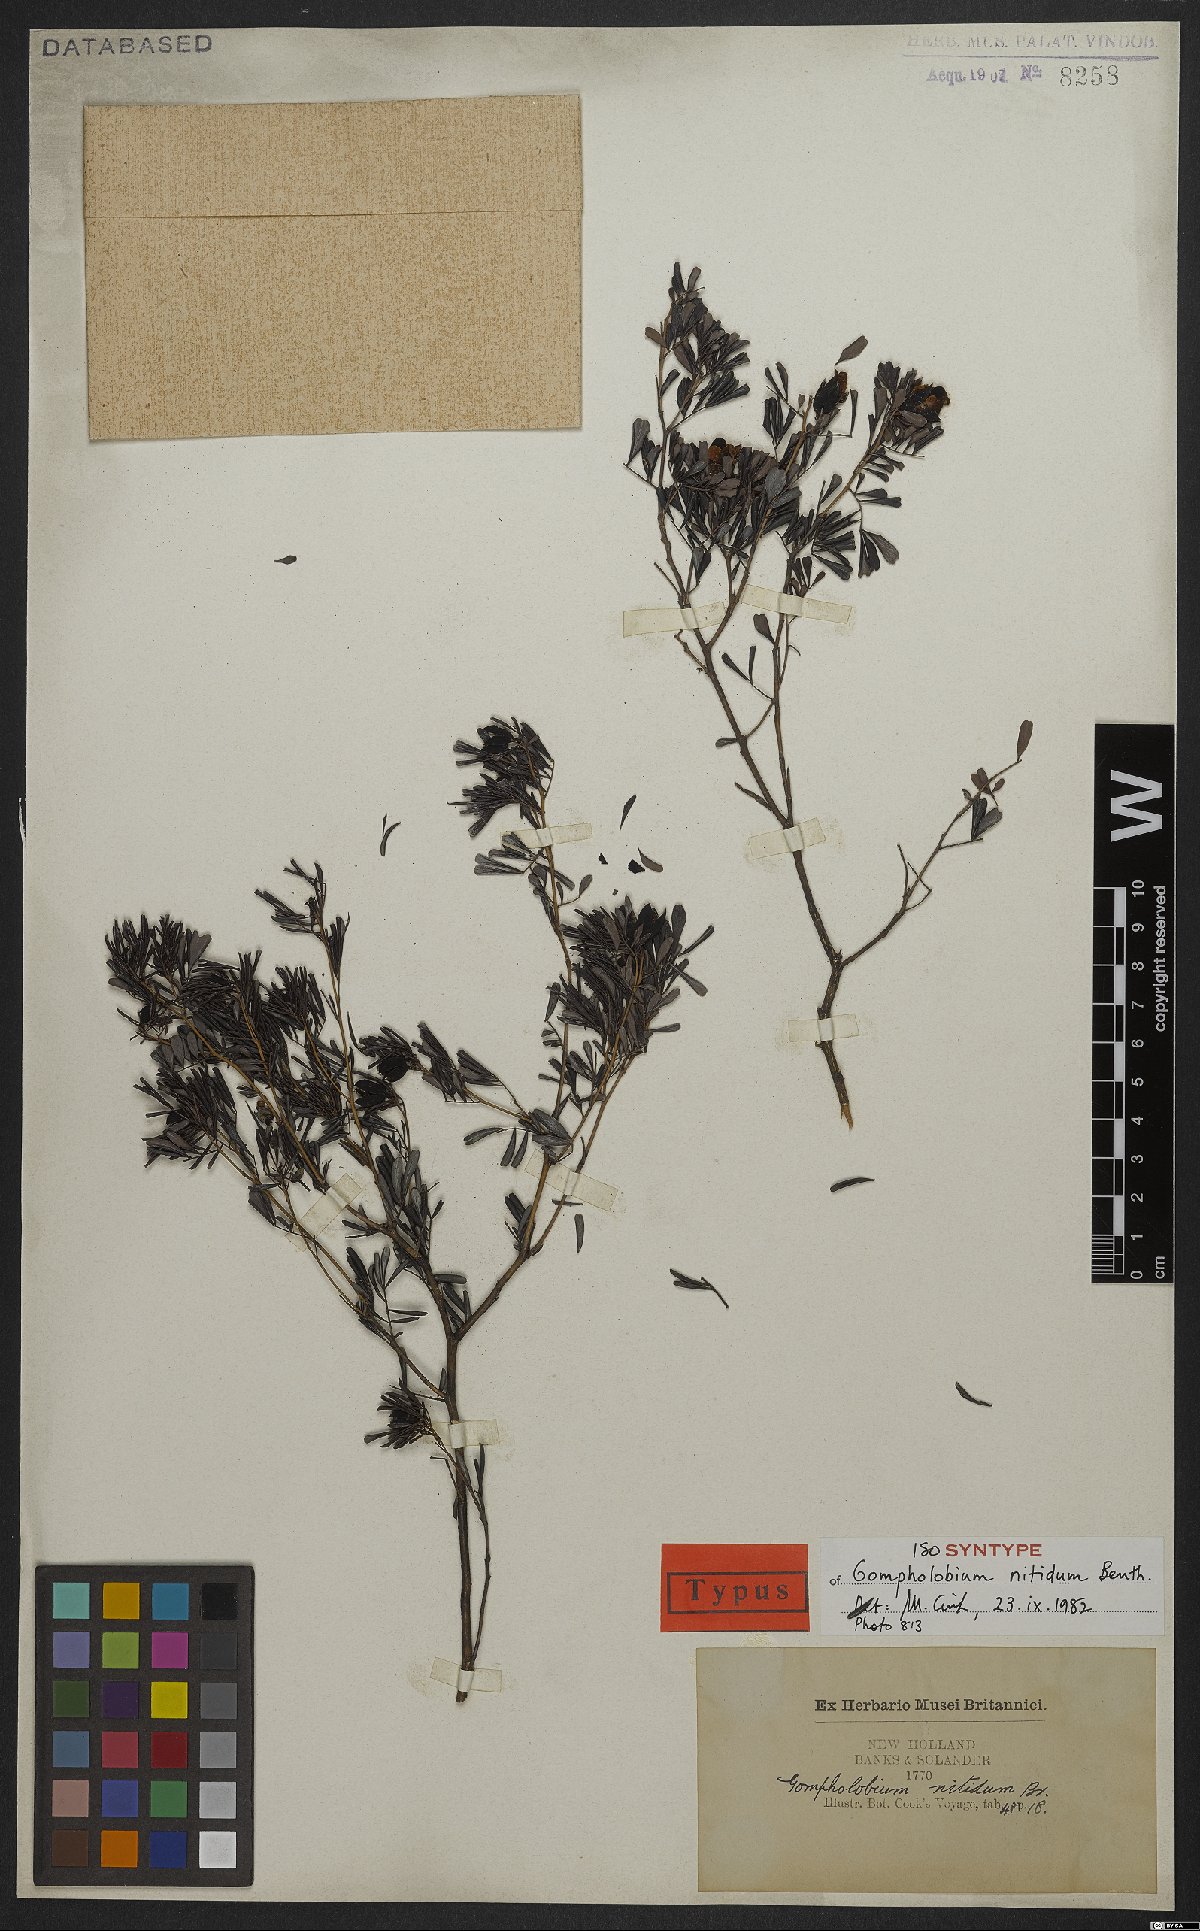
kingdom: Plantae
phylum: Tracheophyta
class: Magnoliopsida
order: Fabales
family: Fabaceae
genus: Gompholobium
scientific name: Gompholobium nitidum
